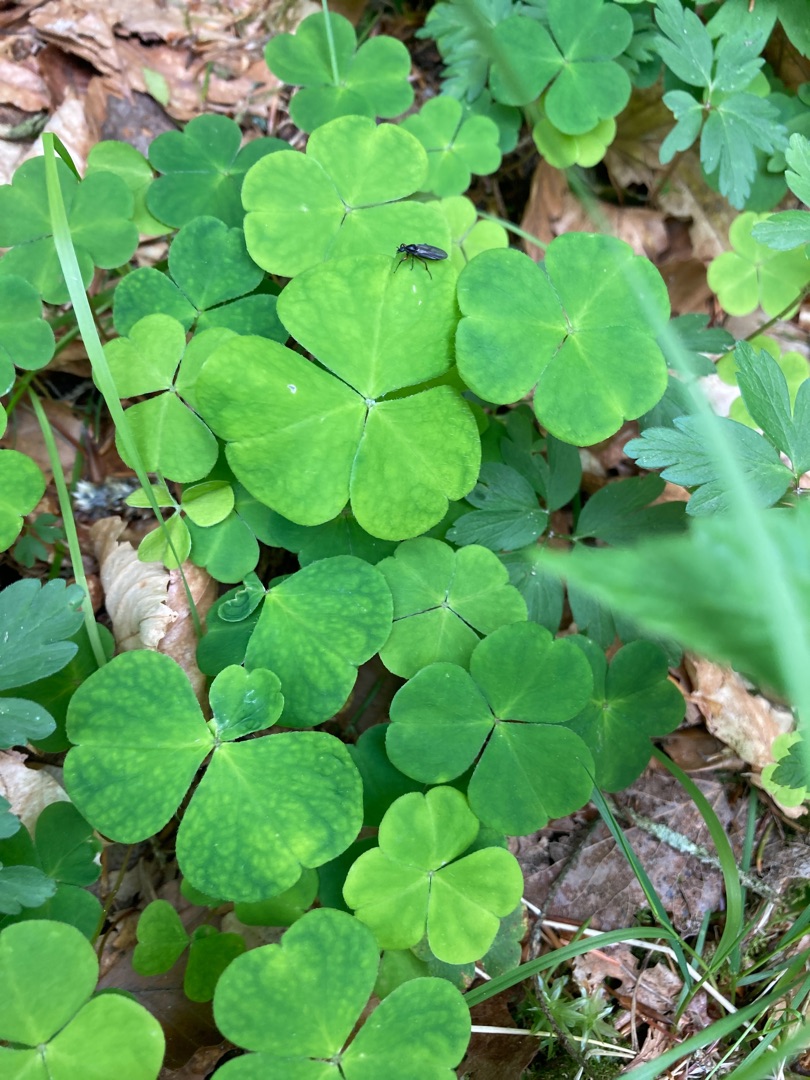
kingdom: Plantae
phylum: Tracheophyta
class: Magnoliopsida
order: Oxalidales
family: Oxalidaceae
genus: Oxalis
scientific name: Oxalis acetosella
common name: Skovsyre
